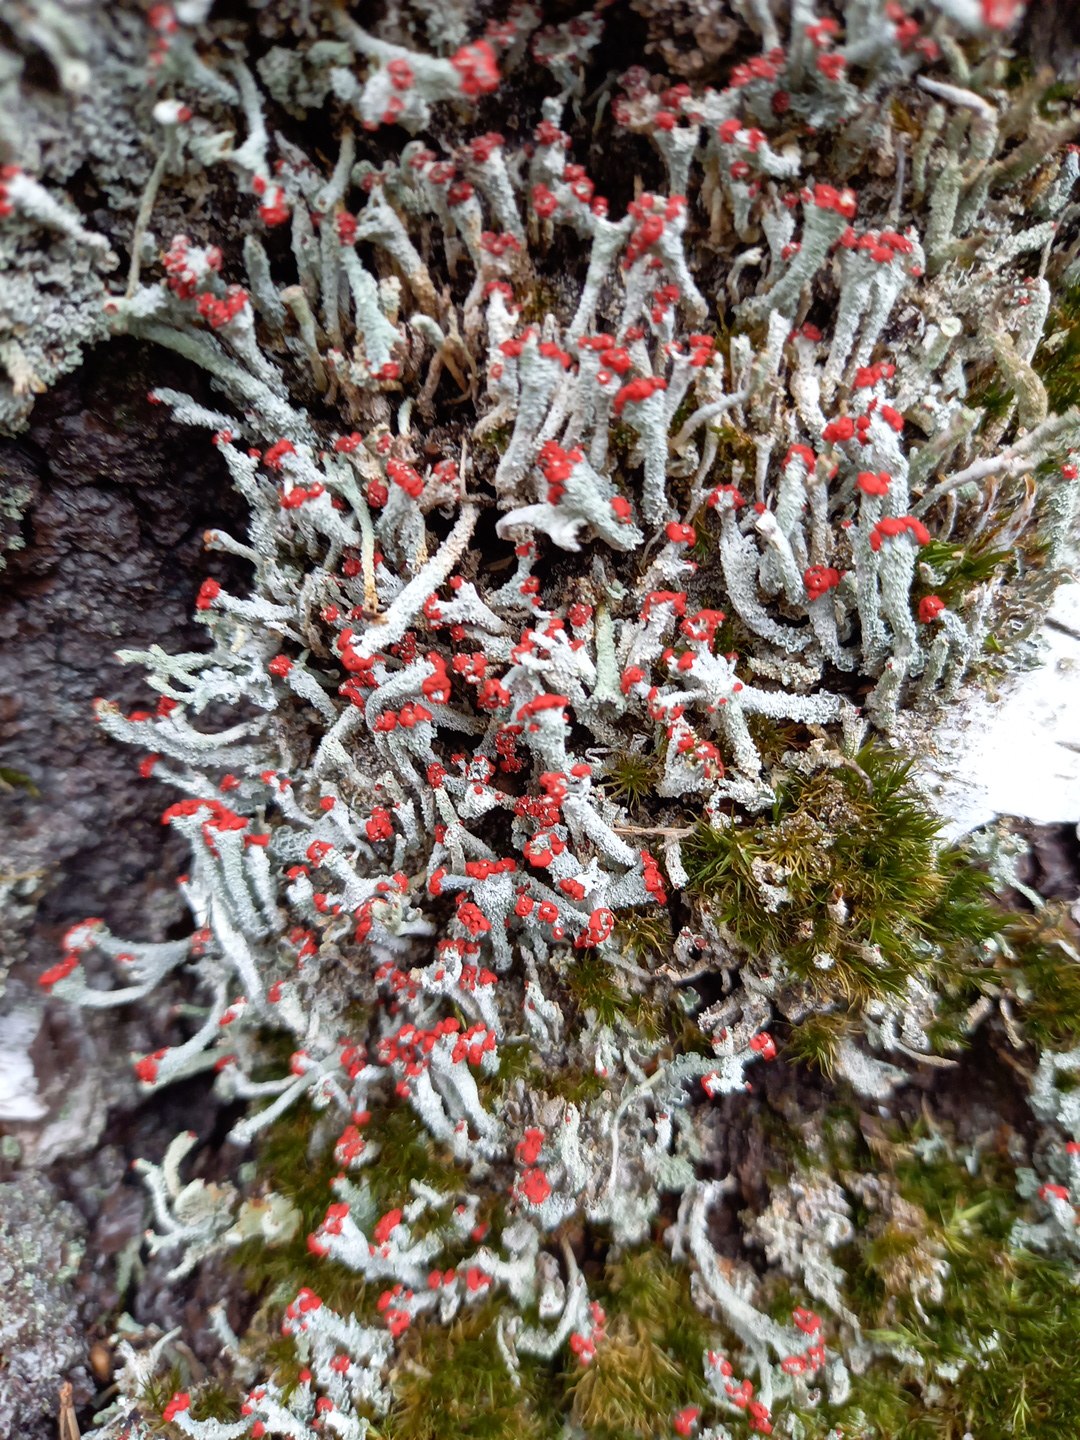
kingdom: Fungi
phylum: Ascomycota
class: Lecanoromycetes
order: Lecanorales
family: Cladoniaceae
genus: Cladonia
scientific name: Cladonia floerkeana
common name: lakrød bægerlav
